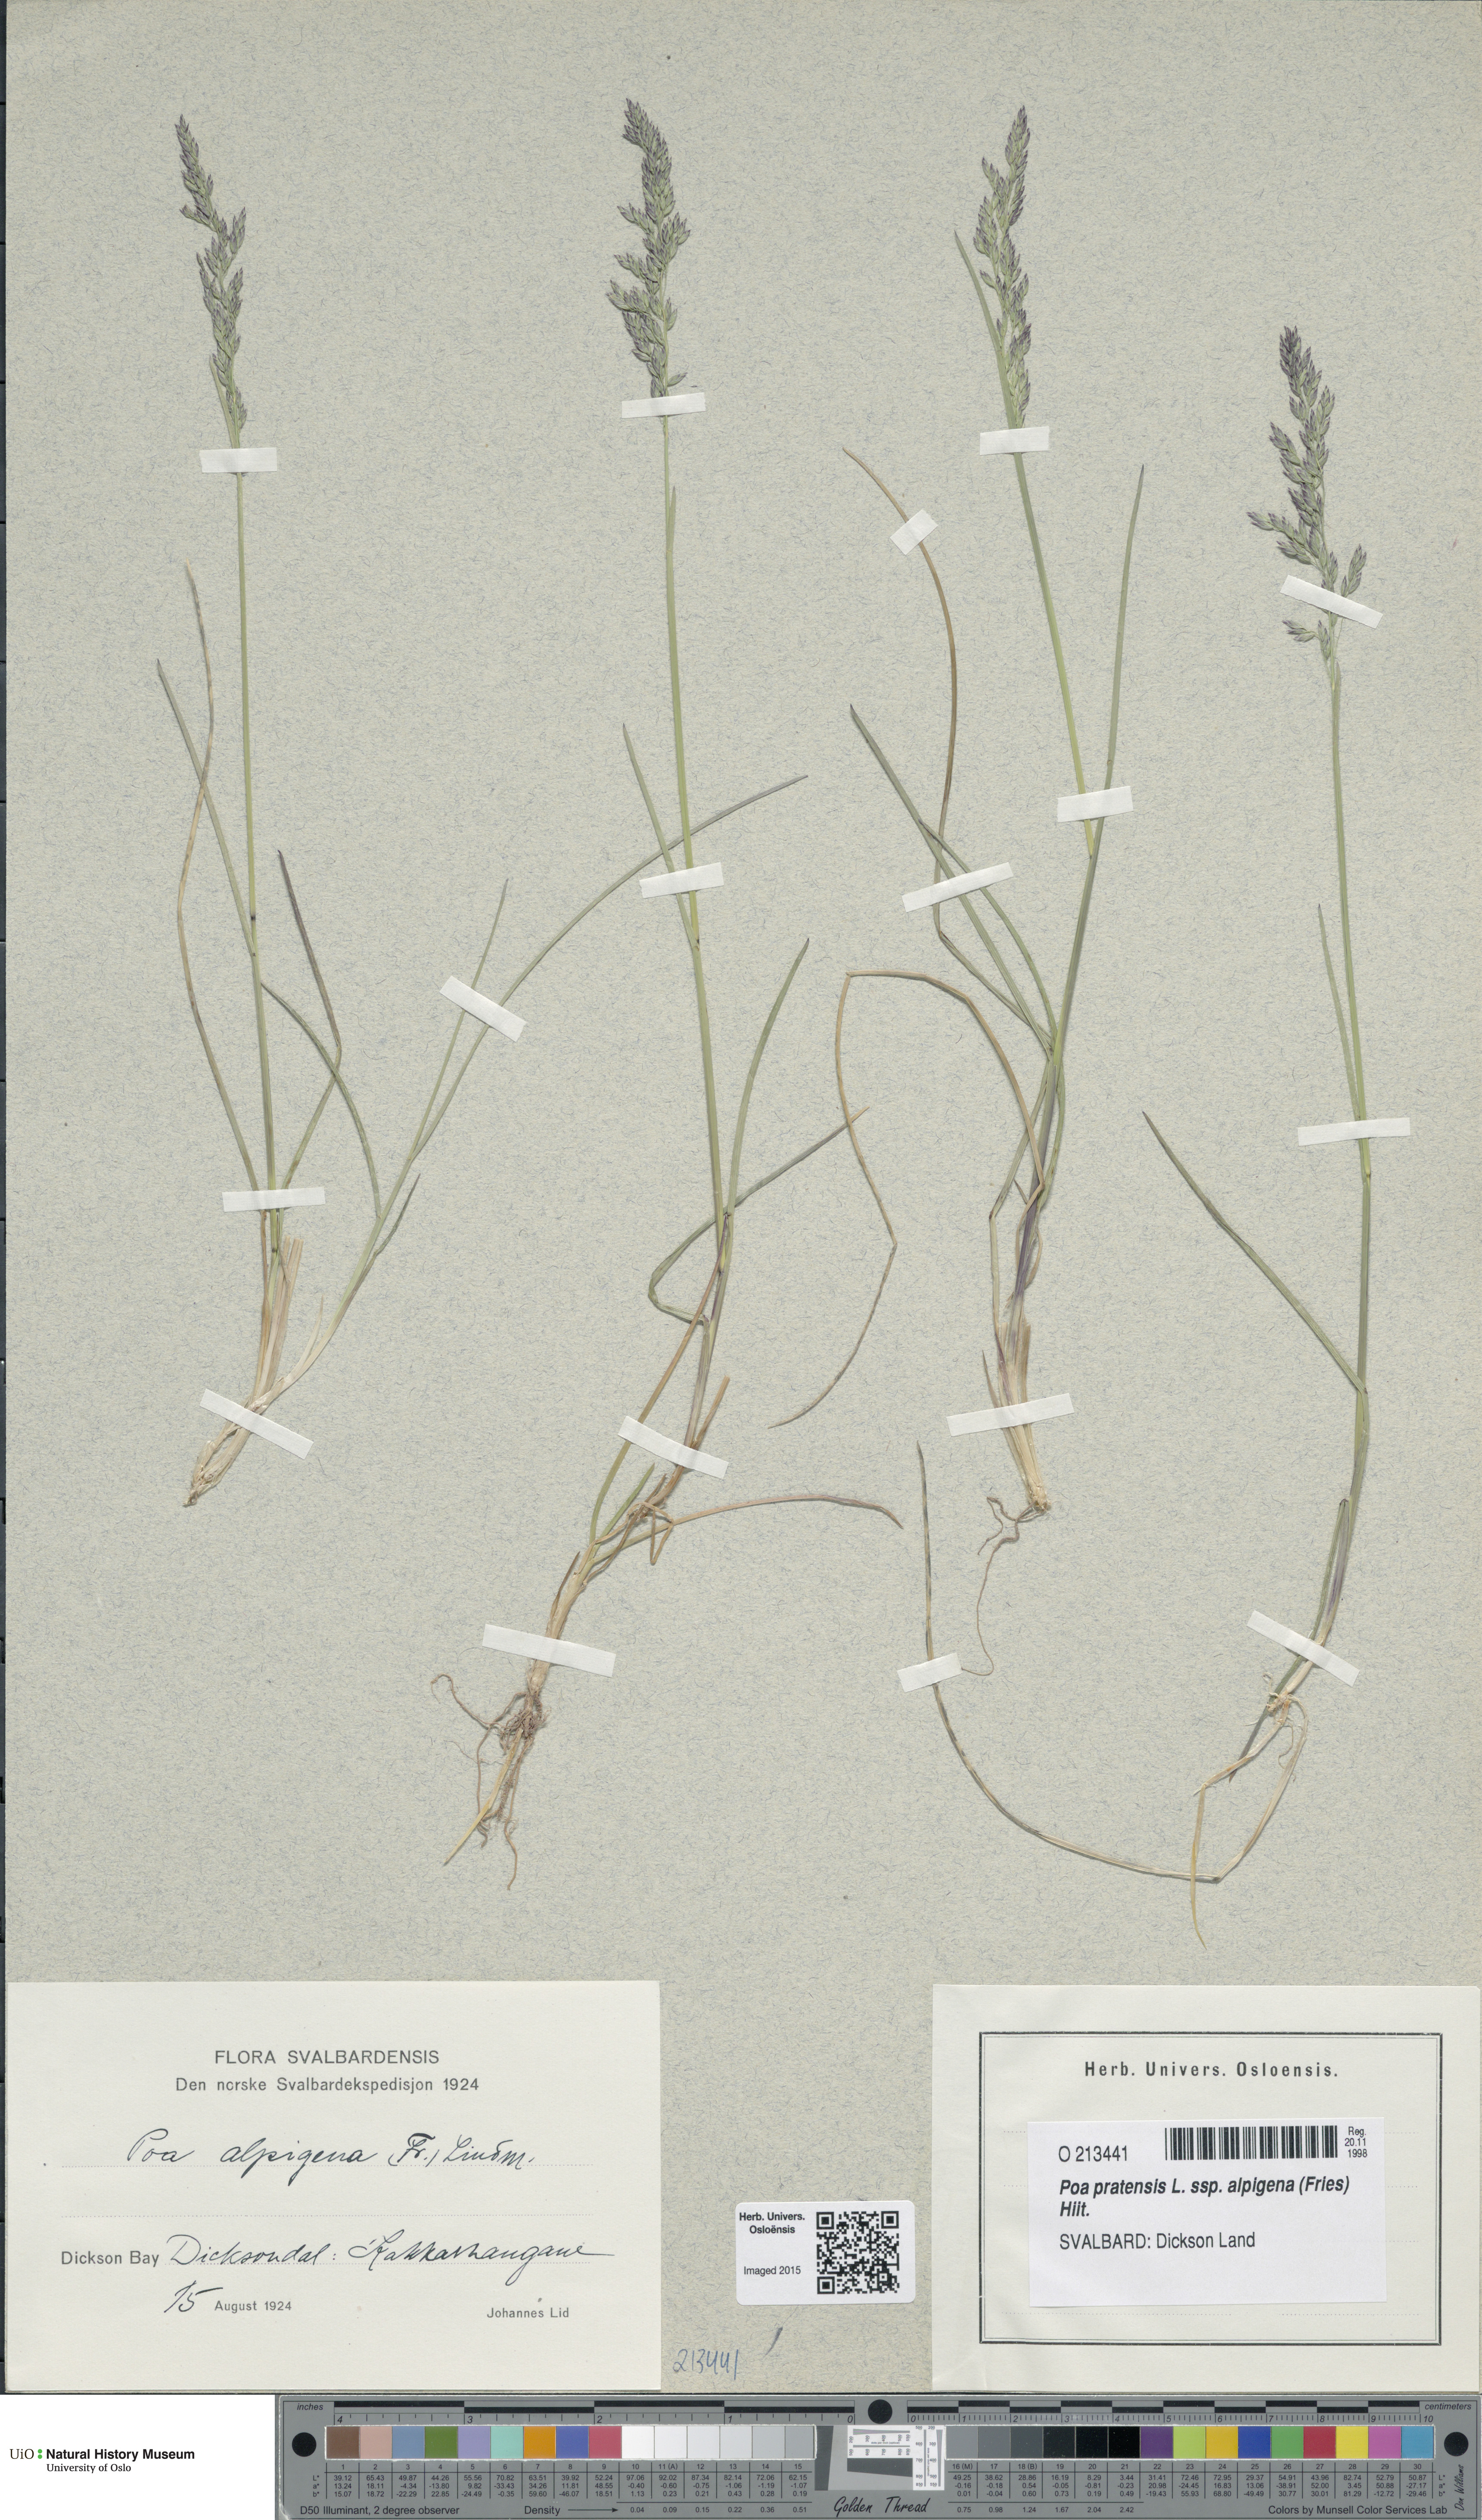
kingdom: Plantae
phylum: Tracheophyta
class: Liliopsida
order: Poales
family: Poaceae
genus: Poa
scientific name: Poa alpigena
